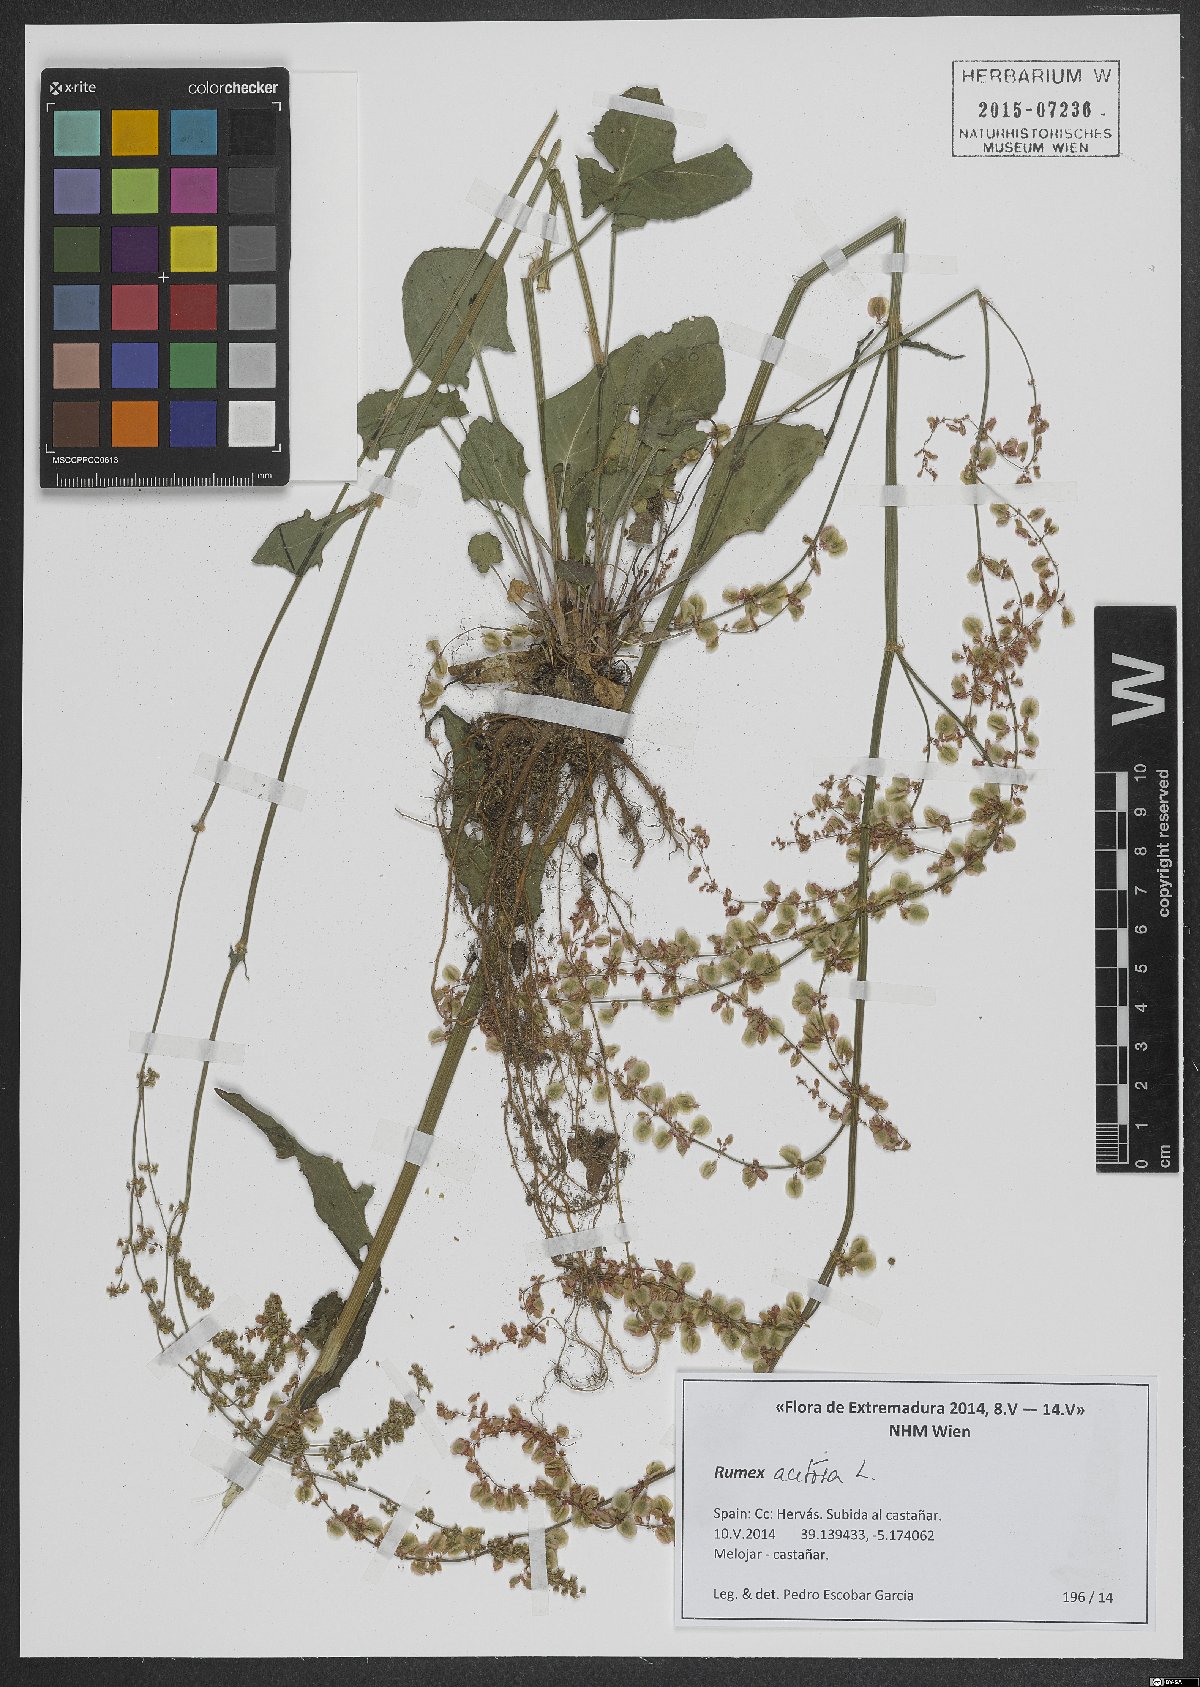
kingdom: Plantae
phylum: Tracheophyta
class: Magnoliopsida
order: Caryophyllales
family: Polygonaceae
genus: Rumex
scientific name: Rumex acetosa
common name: Garden sorrel
